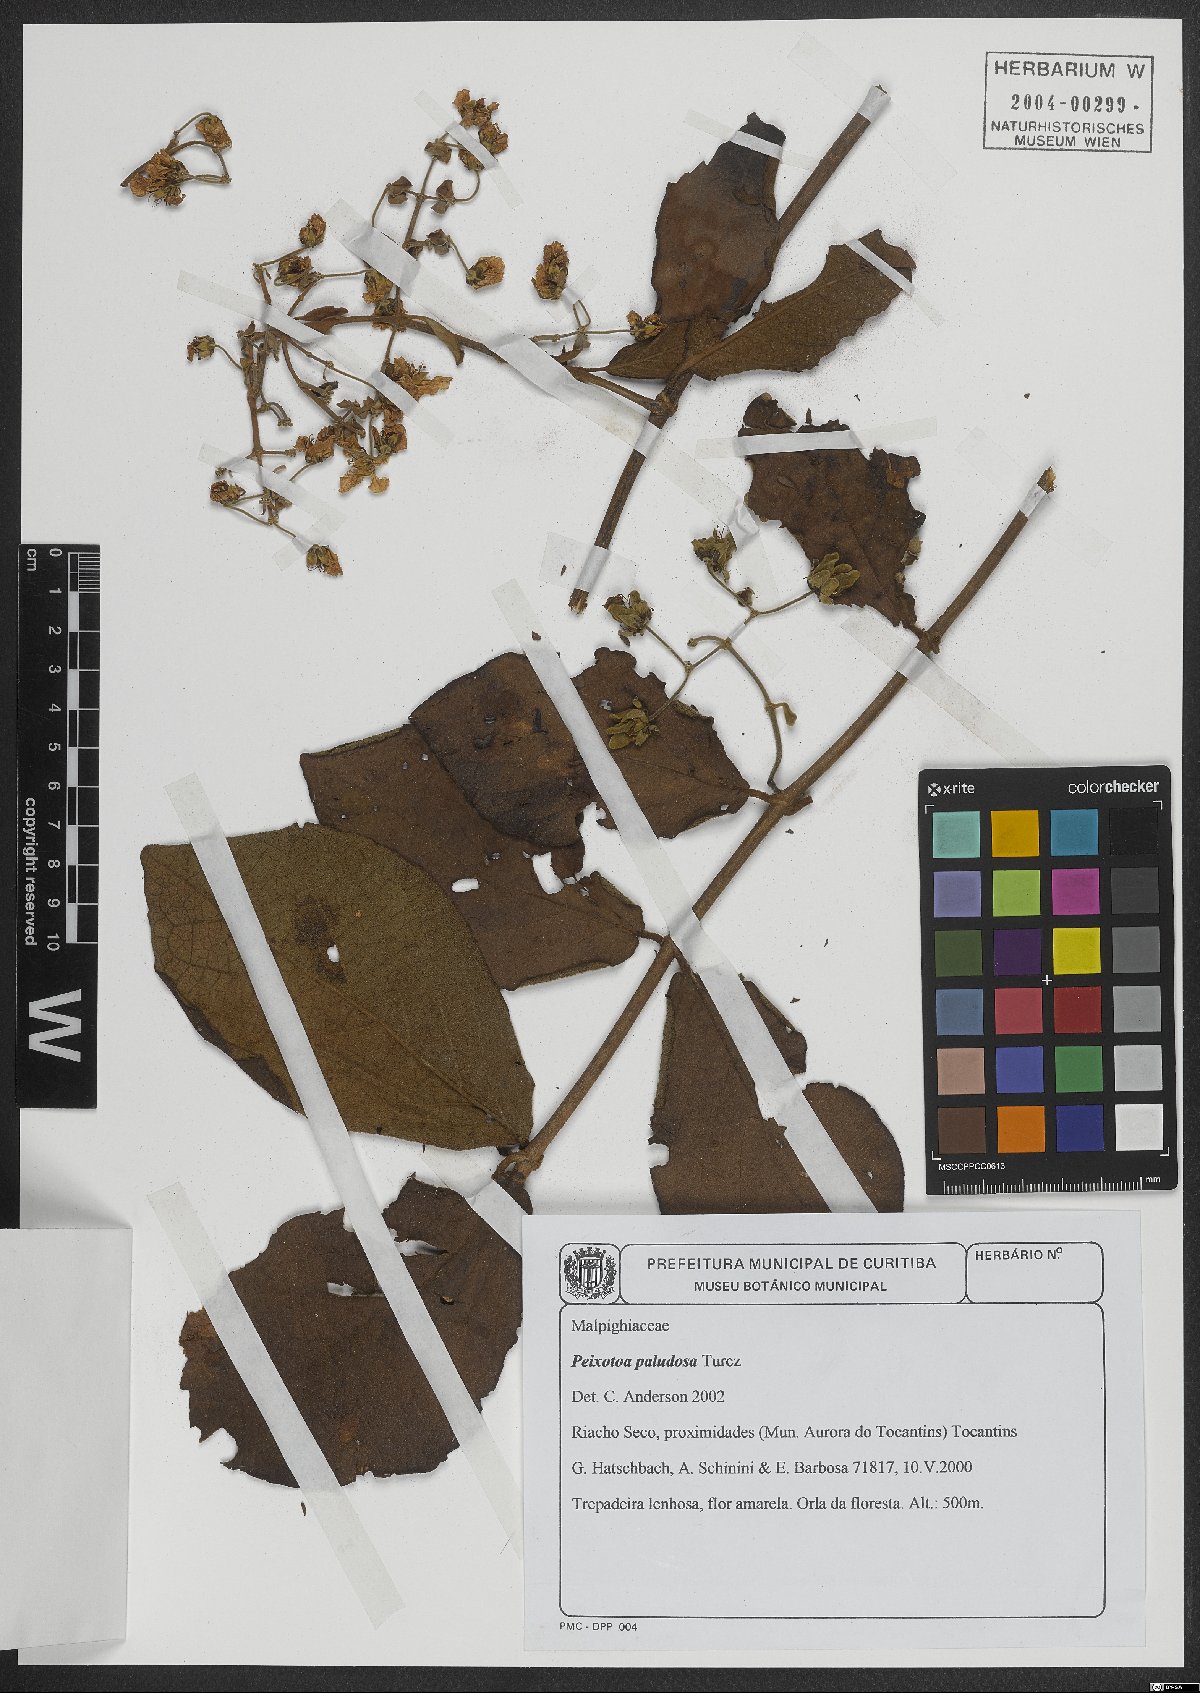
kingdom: Plantae
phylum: Tracheophyta
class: Magnoliopsida
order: Malpighiales
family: Malpighiaceae
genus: Peixotoa
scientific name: Peixotoa paludosa
